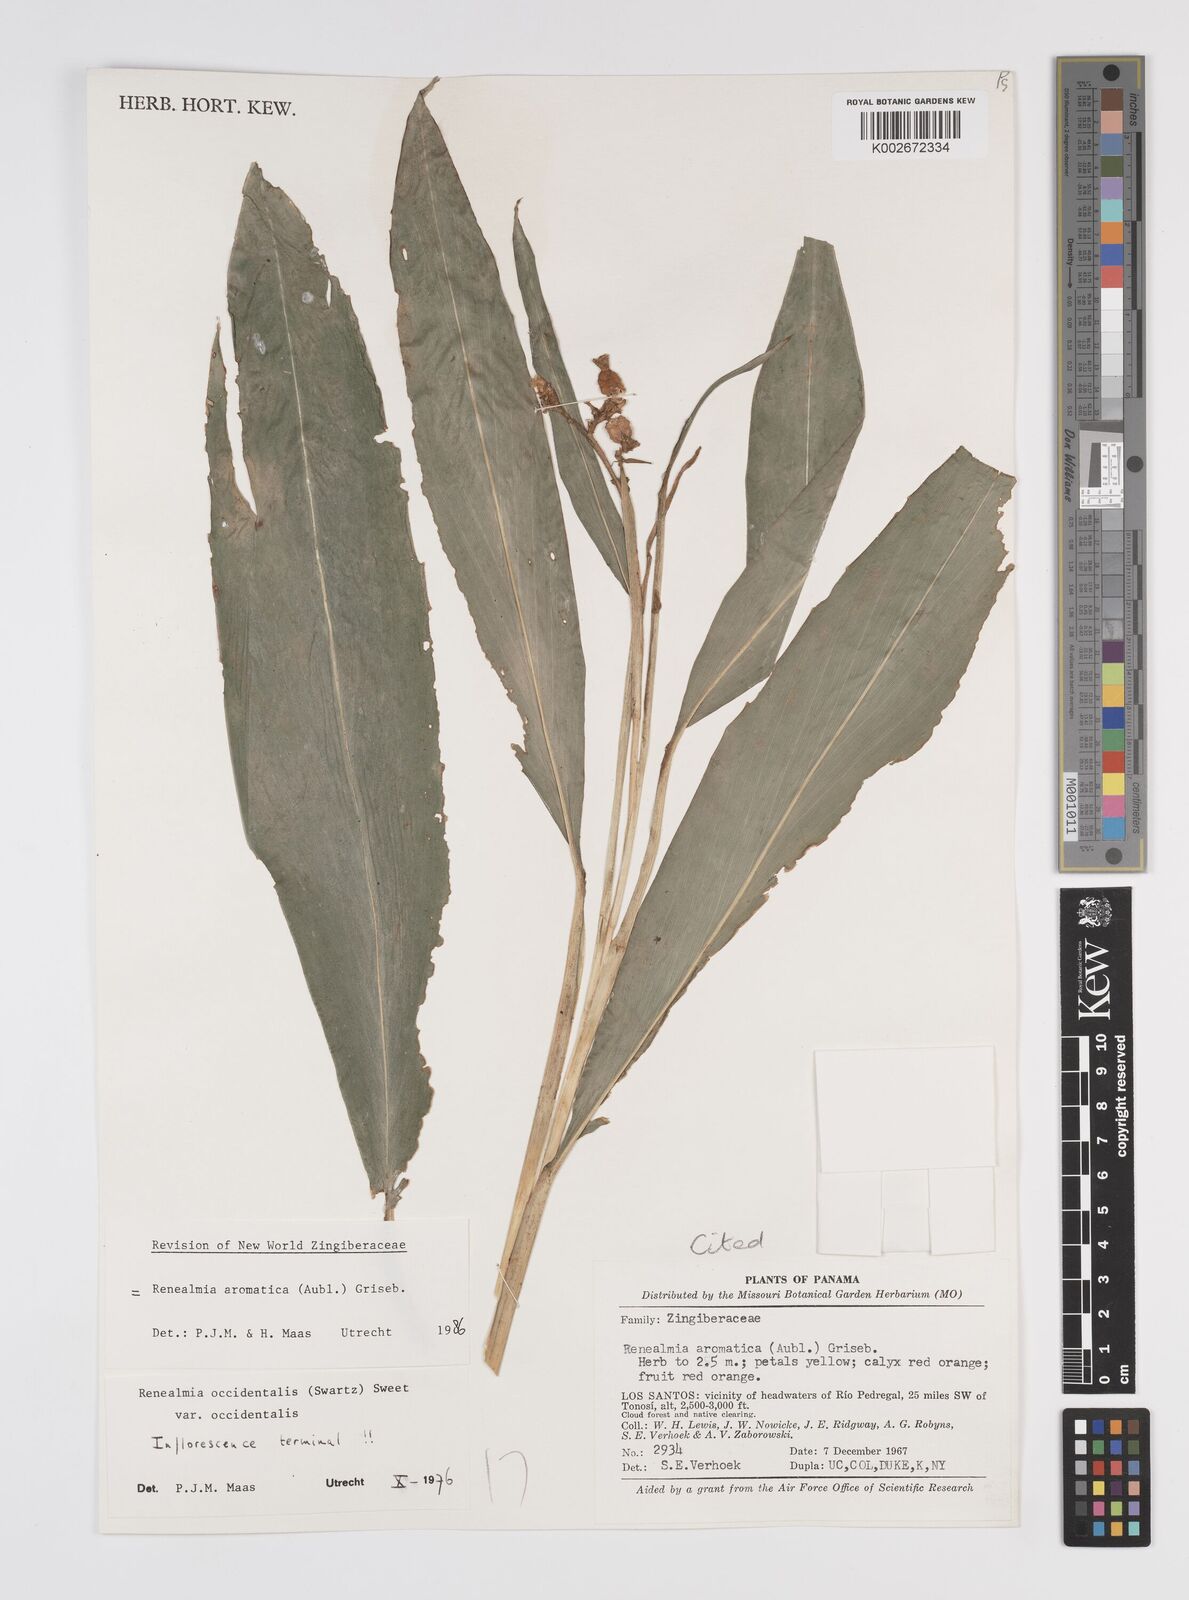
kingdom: Plantae
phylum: Tracheophyta
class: Liliopsida
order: Zingiberales
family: Zingiberaceae
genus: Renealmia
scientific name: Renealmia aromatica
